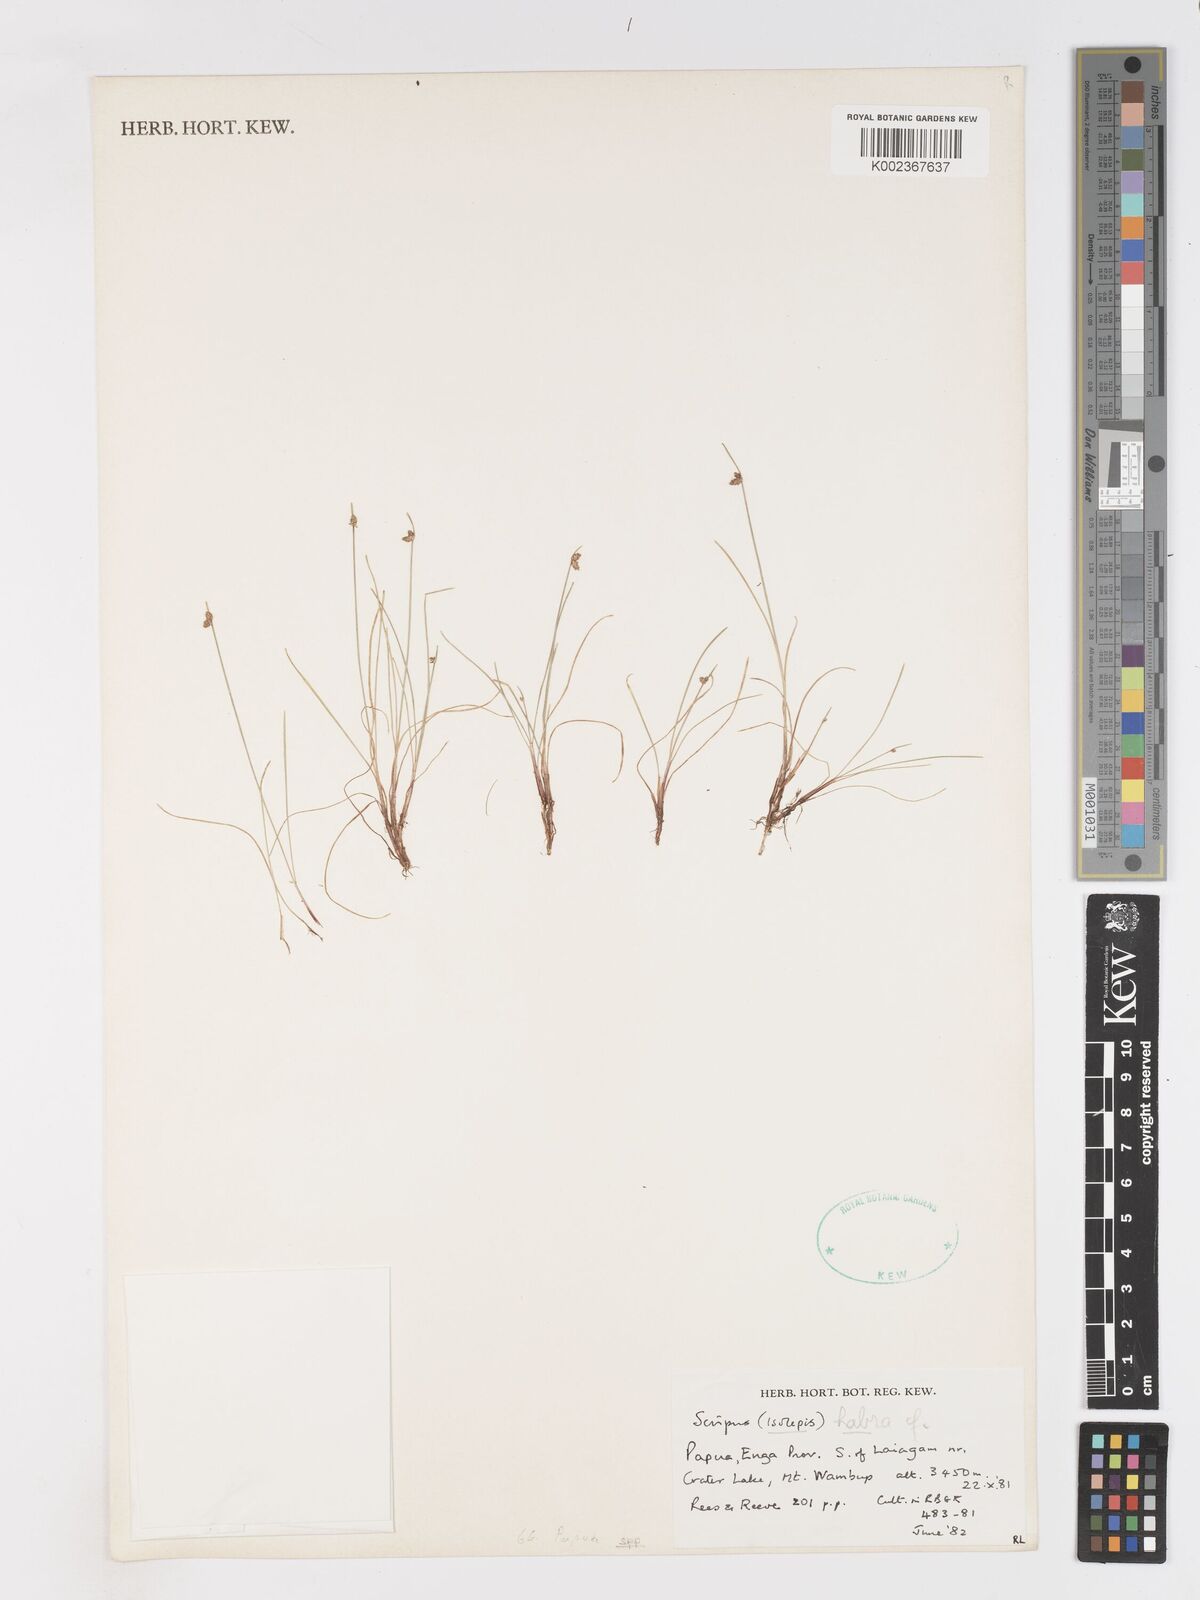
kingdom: Plantae
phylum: Tracheophyta
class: Liliopsida
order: Poales
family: Cyperaceae
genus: Isolepis
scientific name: Isolepis habra
